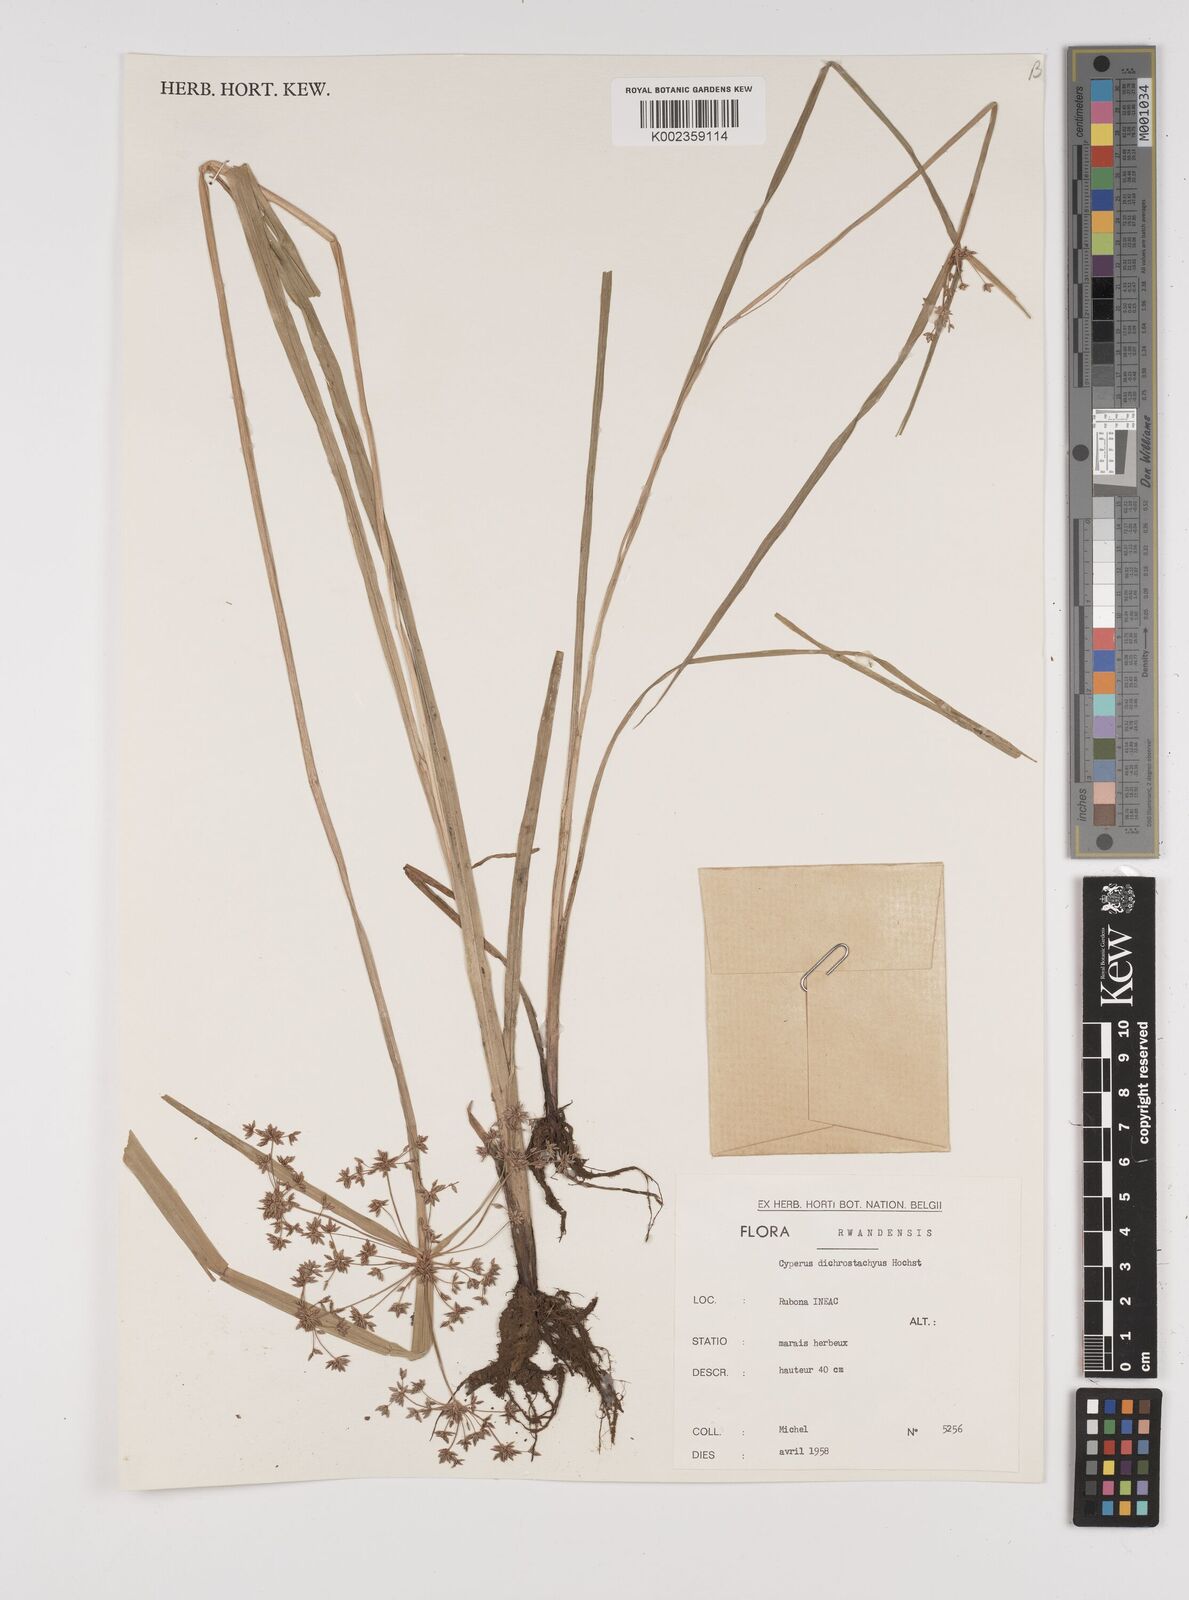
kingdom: Plantae
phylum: Tracheophyta
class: Liliopsida
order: Poales
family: Cyperaceae
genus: Cyperus
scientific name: Cyperus dichrostachyus
